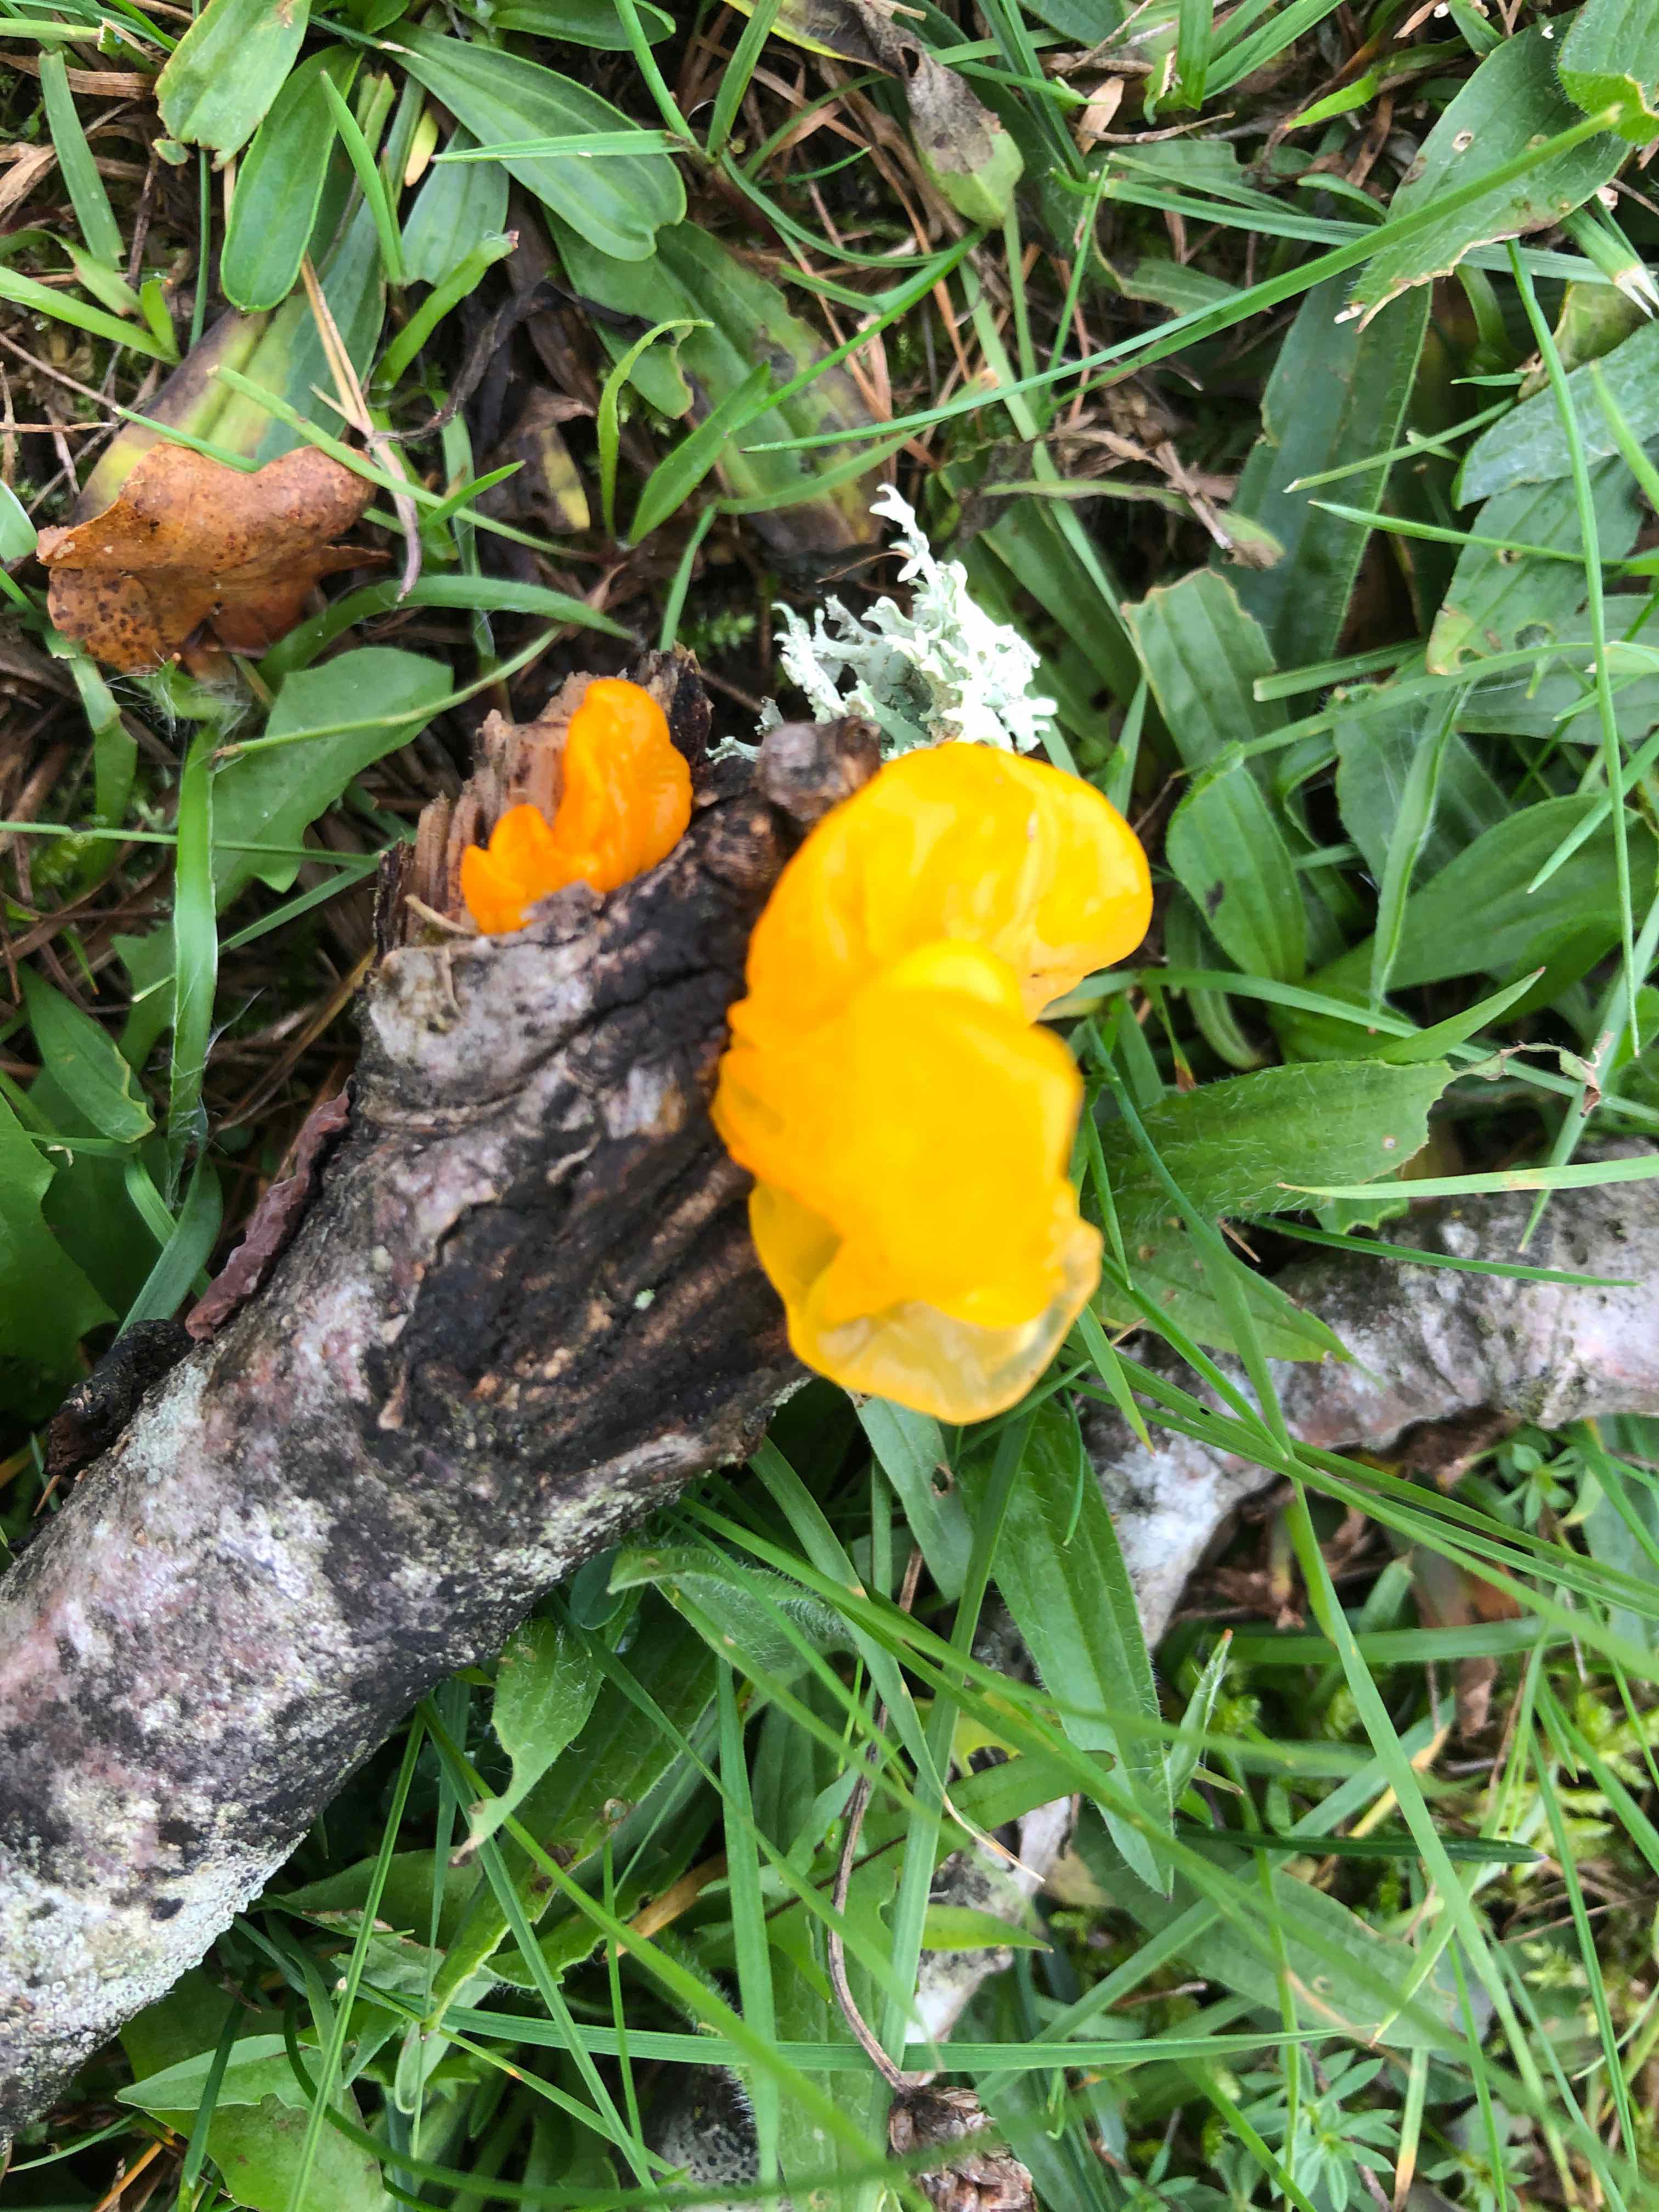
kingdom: Fungi
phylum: Basidiomycota
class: Tremellomycetes
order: Tremellales
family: Tremellaceae
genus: Tremella
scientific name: Tremella mesenterica
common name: gul bævresvamp
